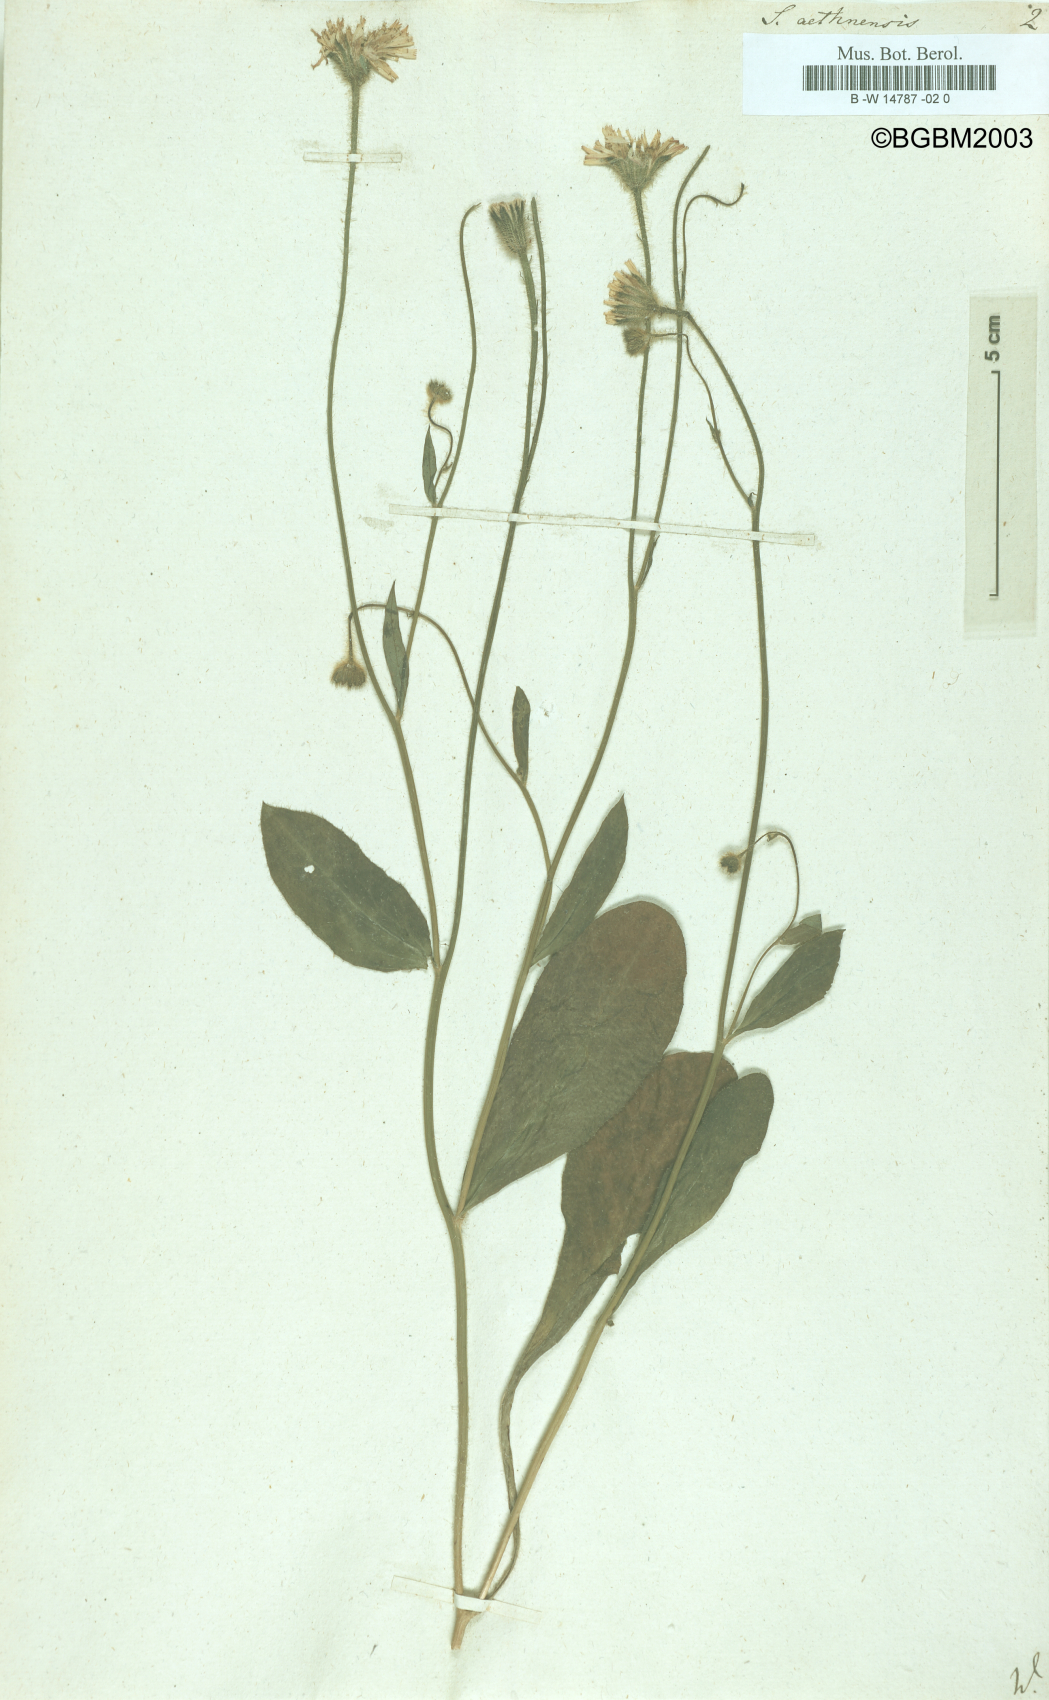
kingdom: Plantae
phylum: Tracheophyta
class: Magnoliopsida
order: Asterales
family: Asteraceae
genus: Achyrophorus
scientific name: Achyrophorus valdesii
